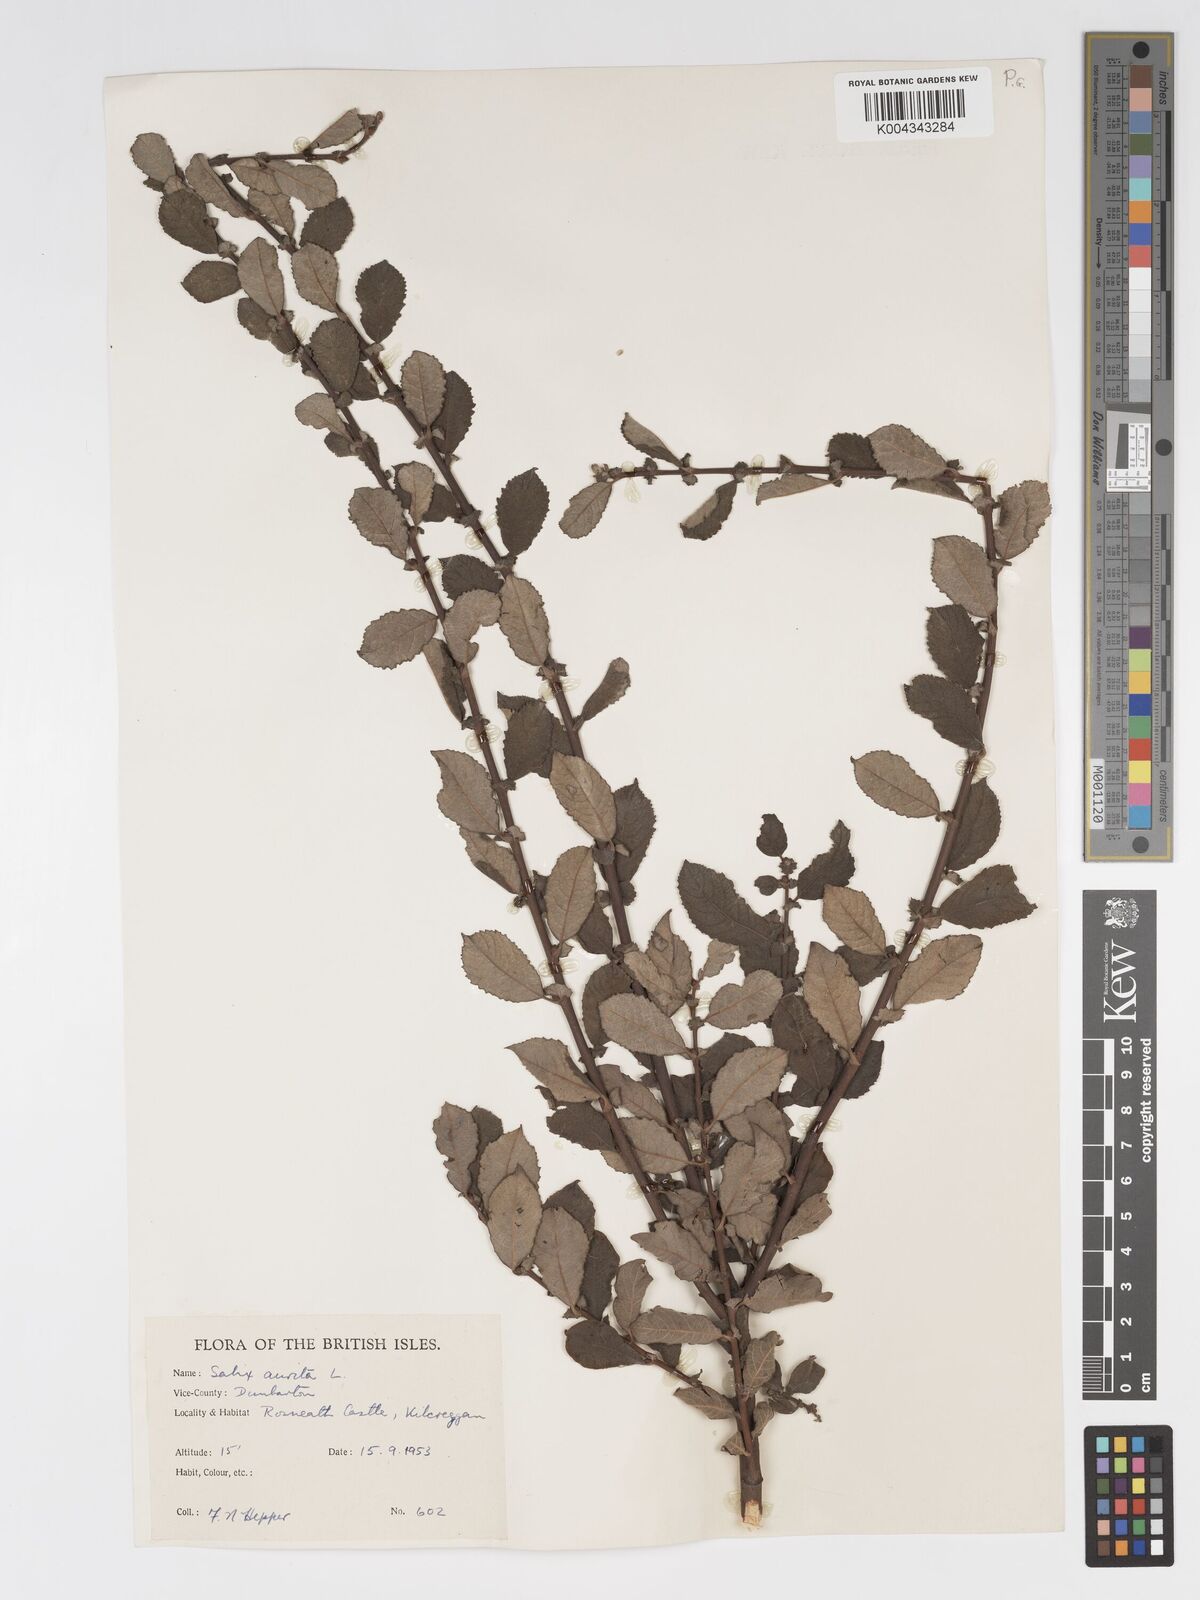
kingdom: Plantae
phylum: Tracheophyta
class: Magnoliopsida
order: Malpighiales
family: Salicaceae
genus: Salix
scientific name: Salix aurita
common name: Eared willow
